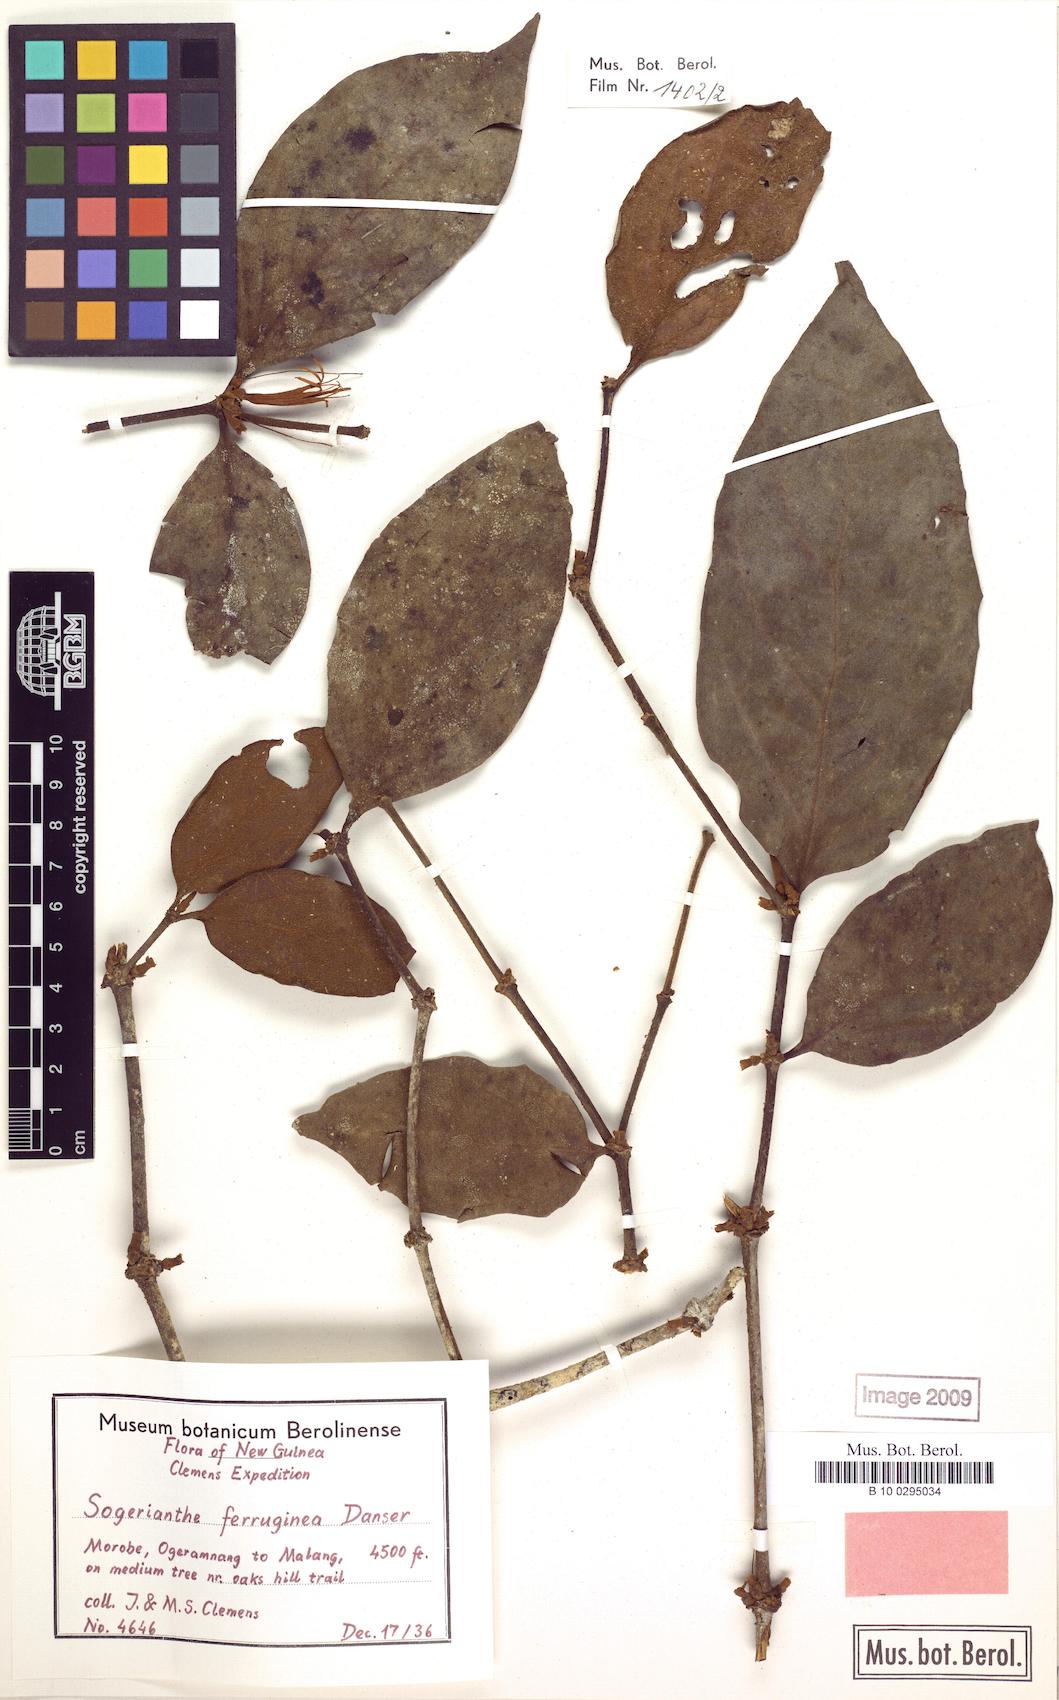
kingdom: Plantae
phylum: Tracheophyta
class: Magnoliopsida
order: Santalales
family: Loranthaceae
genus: Sogerianthe
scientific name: Sogerianthe sessiliflora
